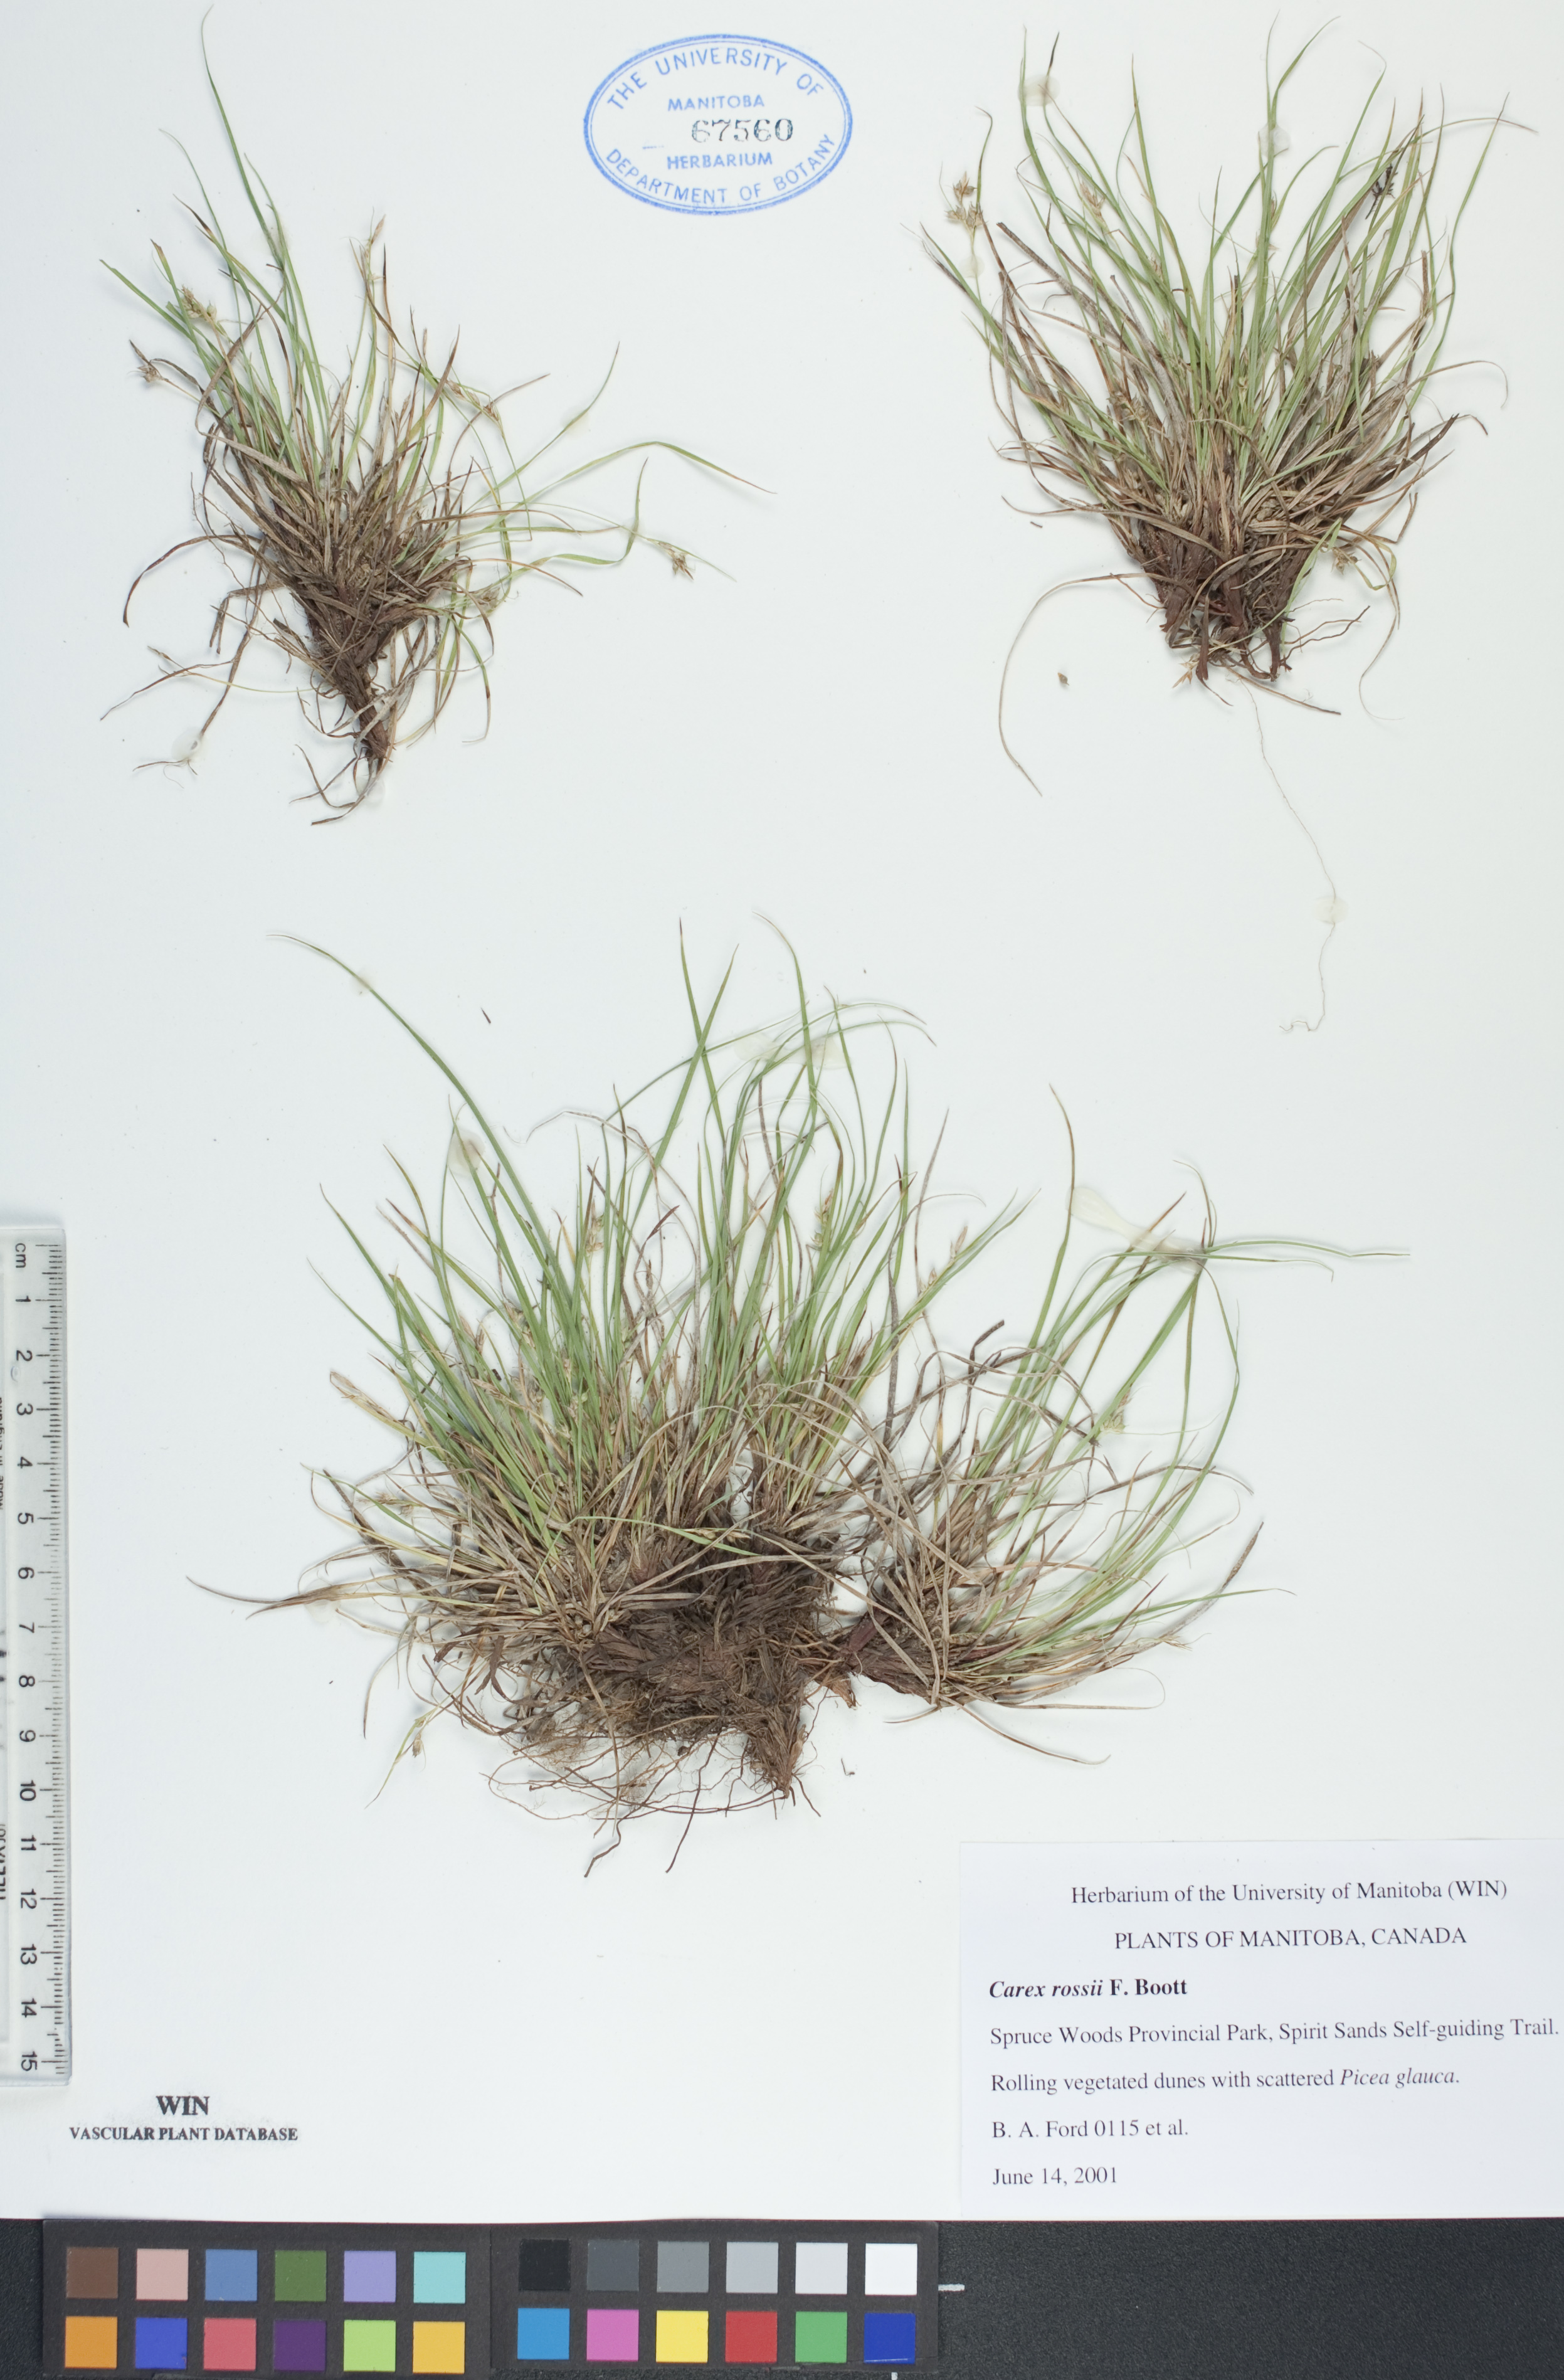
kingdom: Plantae
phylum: Tracheophyta
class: Liliopsida
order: Poales
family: Cyperaceae
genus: Carex
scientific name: Carex rossii
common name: Ross' sedge
